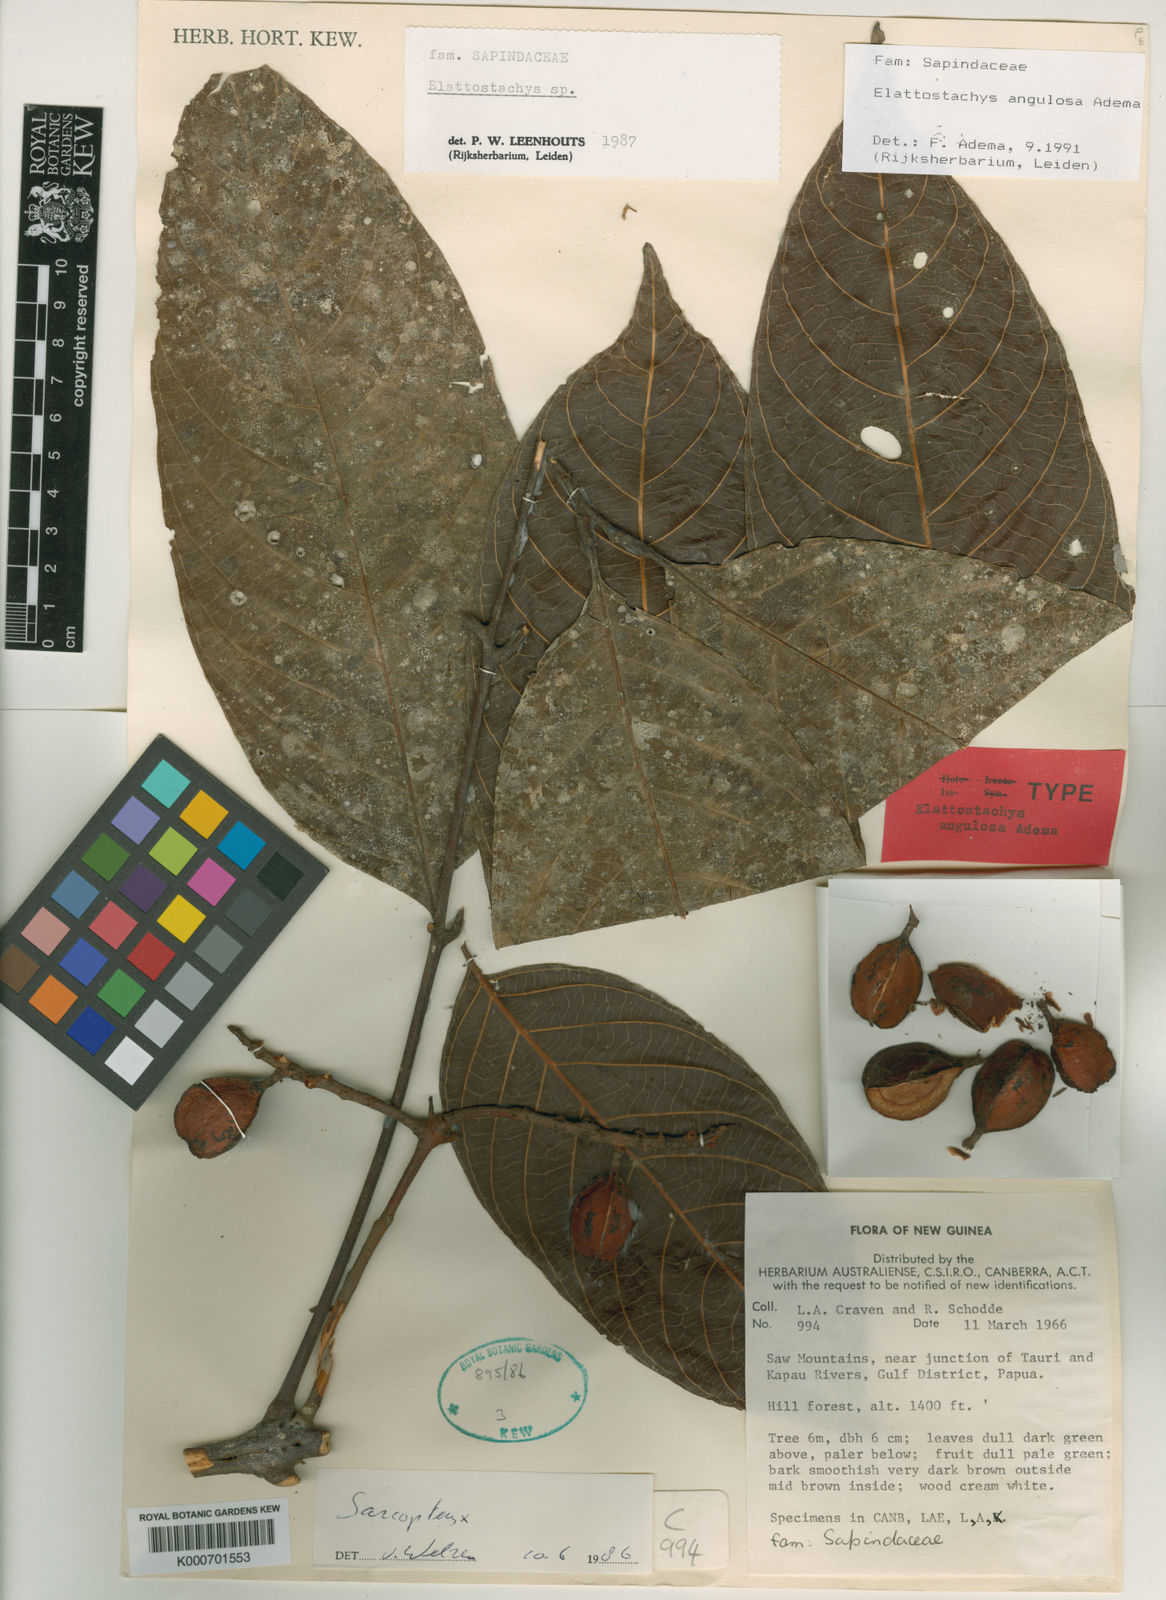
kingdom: Plantae
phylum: Tracheophyta
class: Magnoliopsida
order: Sapindales
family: Sapindaceae
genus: Elattostachys
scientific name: Elattostachys angulosa
